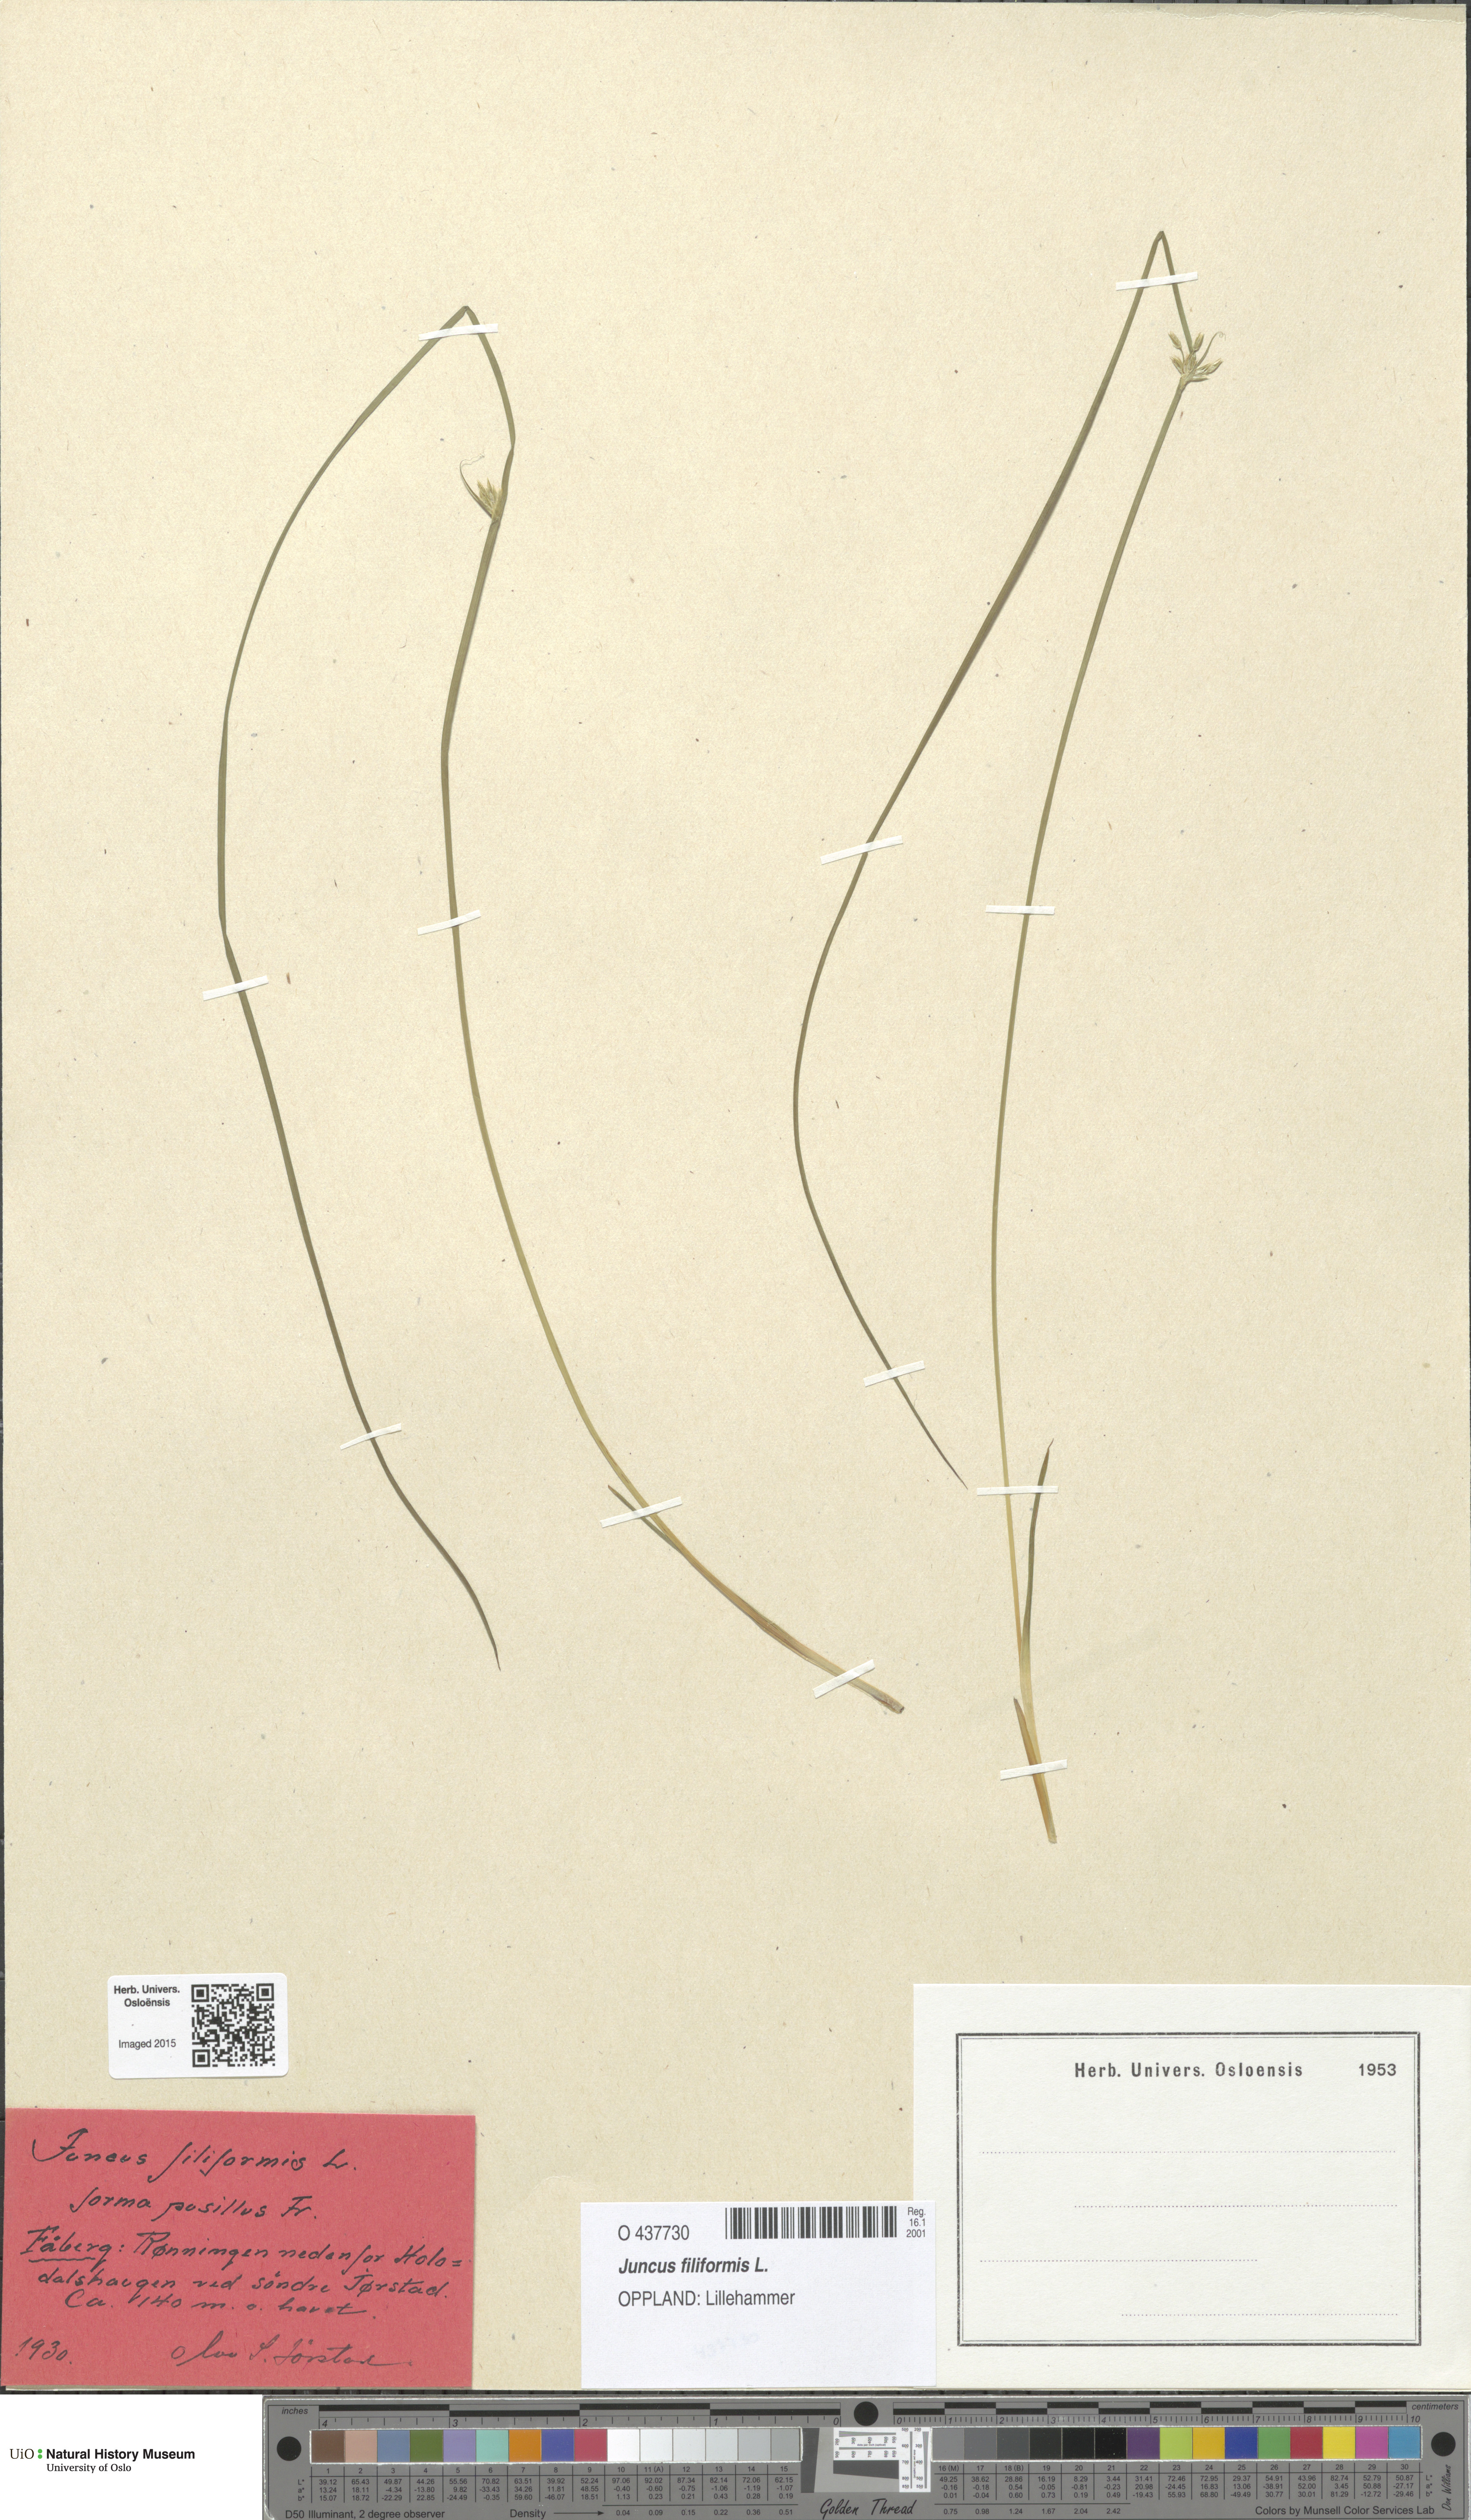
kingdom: Plantae
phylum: Tracheophyta
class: Liliopsida
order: Poales
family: Juncaceae
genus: Juncus
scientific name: Juncus filiformis
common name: Thread rush
